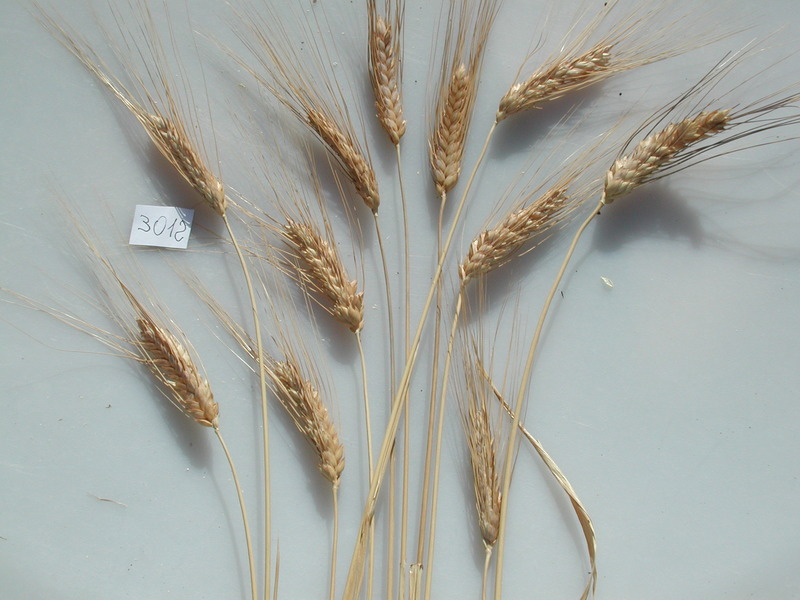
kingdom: Plantae
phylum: Tracheophyta
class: Liliopsida
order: Poales
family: Poaceae
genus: Triticum
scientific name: Triticum turgidum
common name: Wheat
